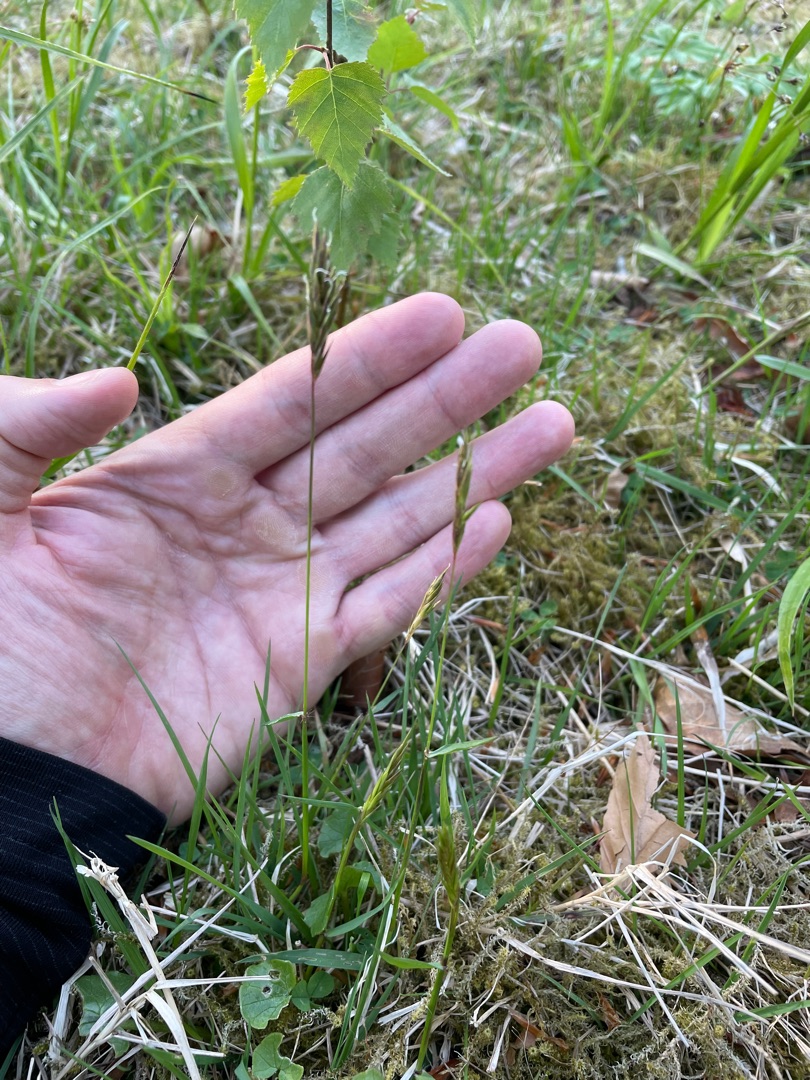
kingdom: Plantae
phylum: Tracheophyta
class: Liliopsida
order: Poales
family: Poaceae
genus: Anthoxanthum
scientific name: Anthoxanthum odoratum
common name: Vellugtende gulaks
